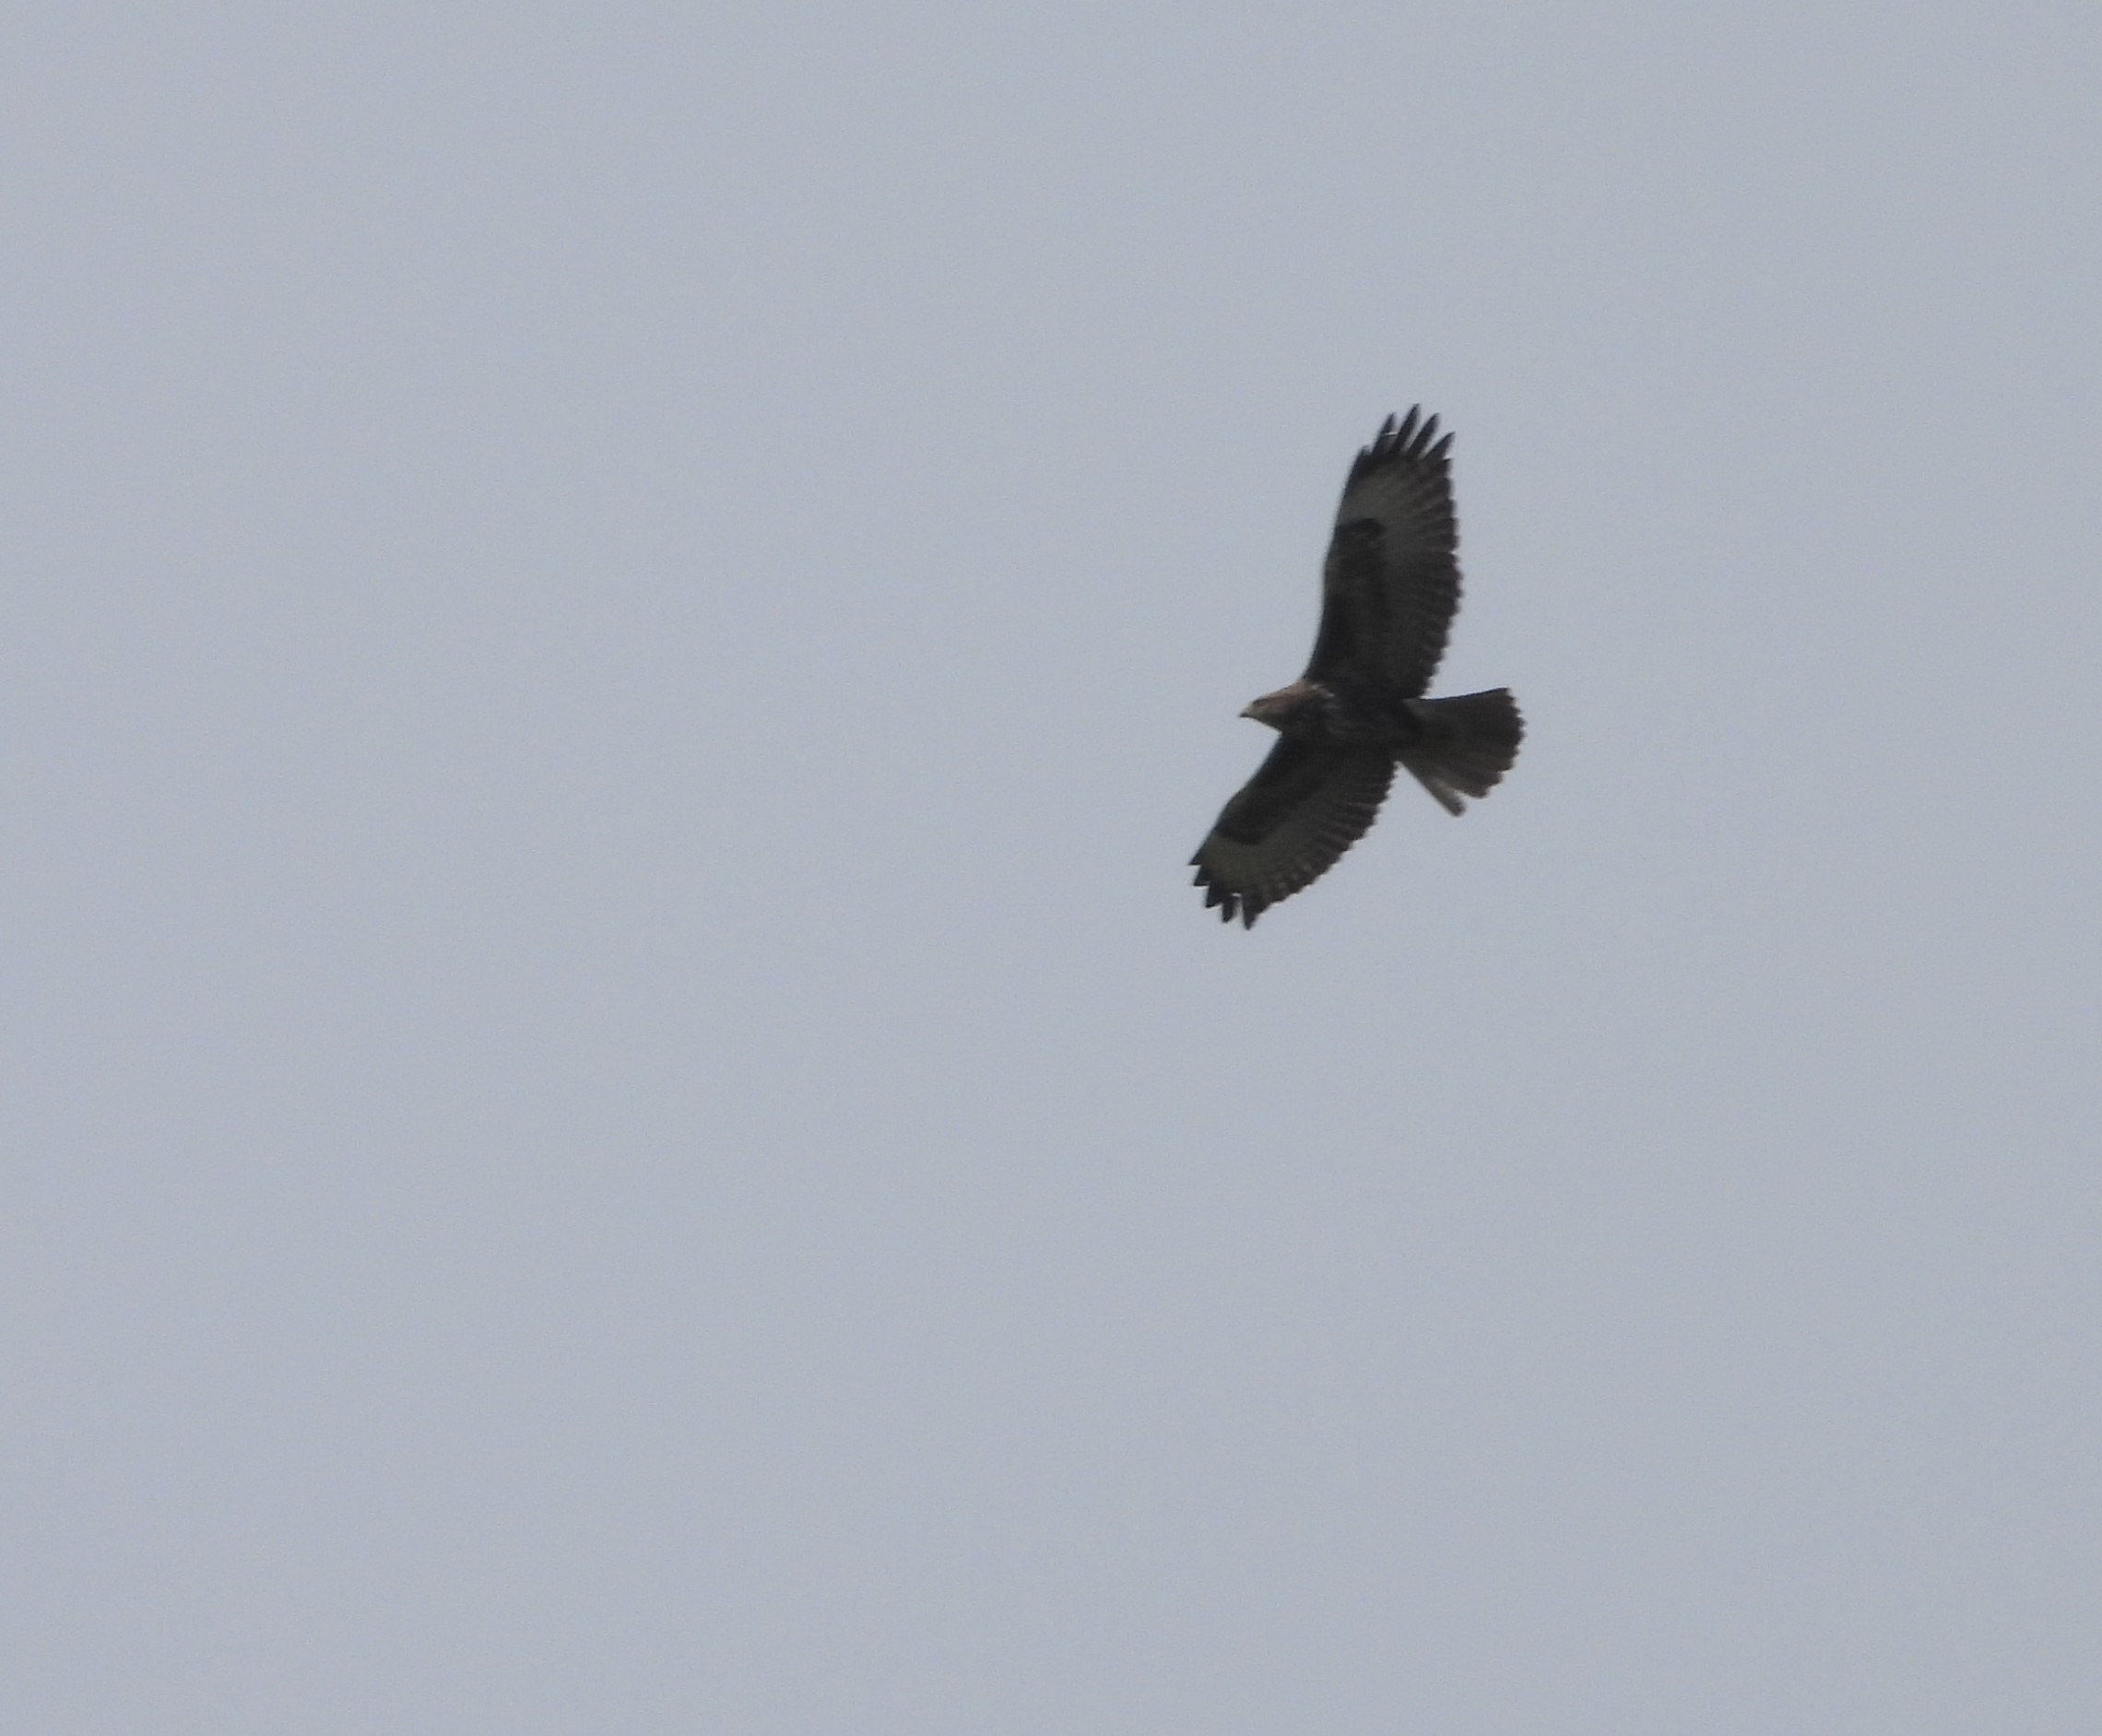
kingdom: Animalia
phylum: Chordata
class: Aves
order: Accipitriformes
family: Accipitridae
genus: Buteo
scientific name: Buteo buteo
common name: Musvåge
